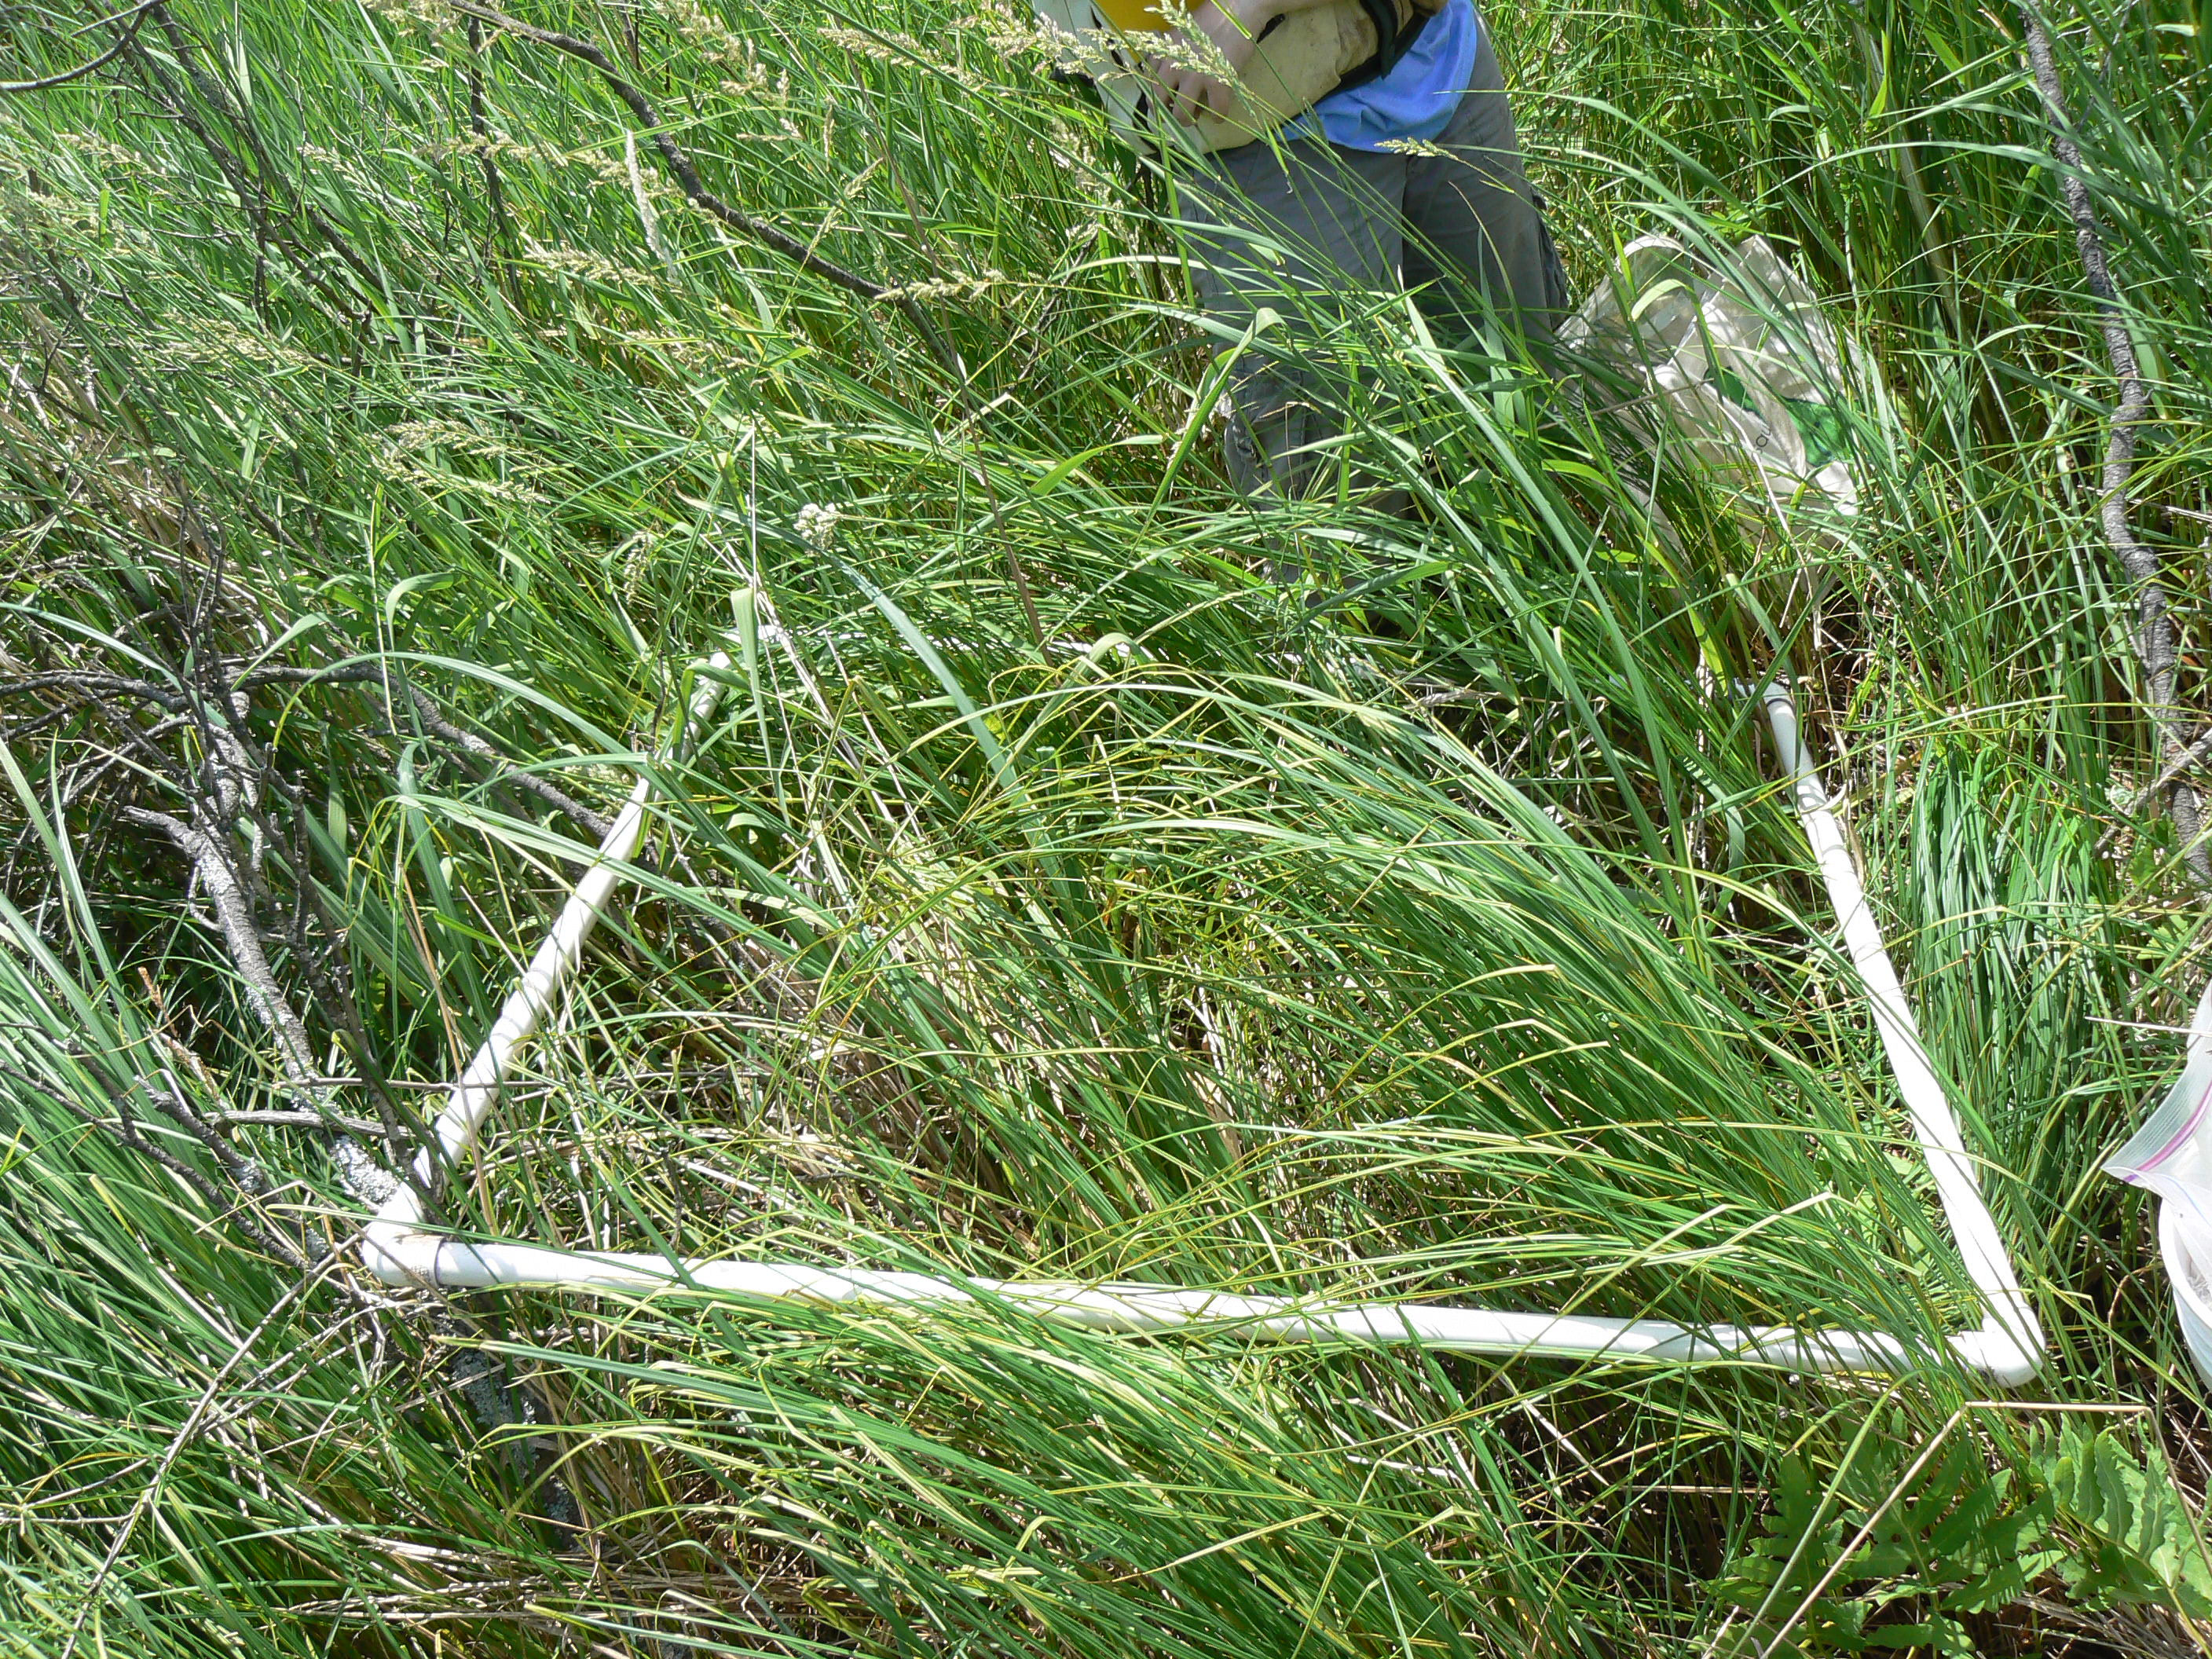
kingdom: Plantae
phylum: Tracheophyta
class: Liliopsida
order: Poales
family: Cyperaceae
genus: Carex
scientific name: Carex stricta
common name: Hummock sedge
